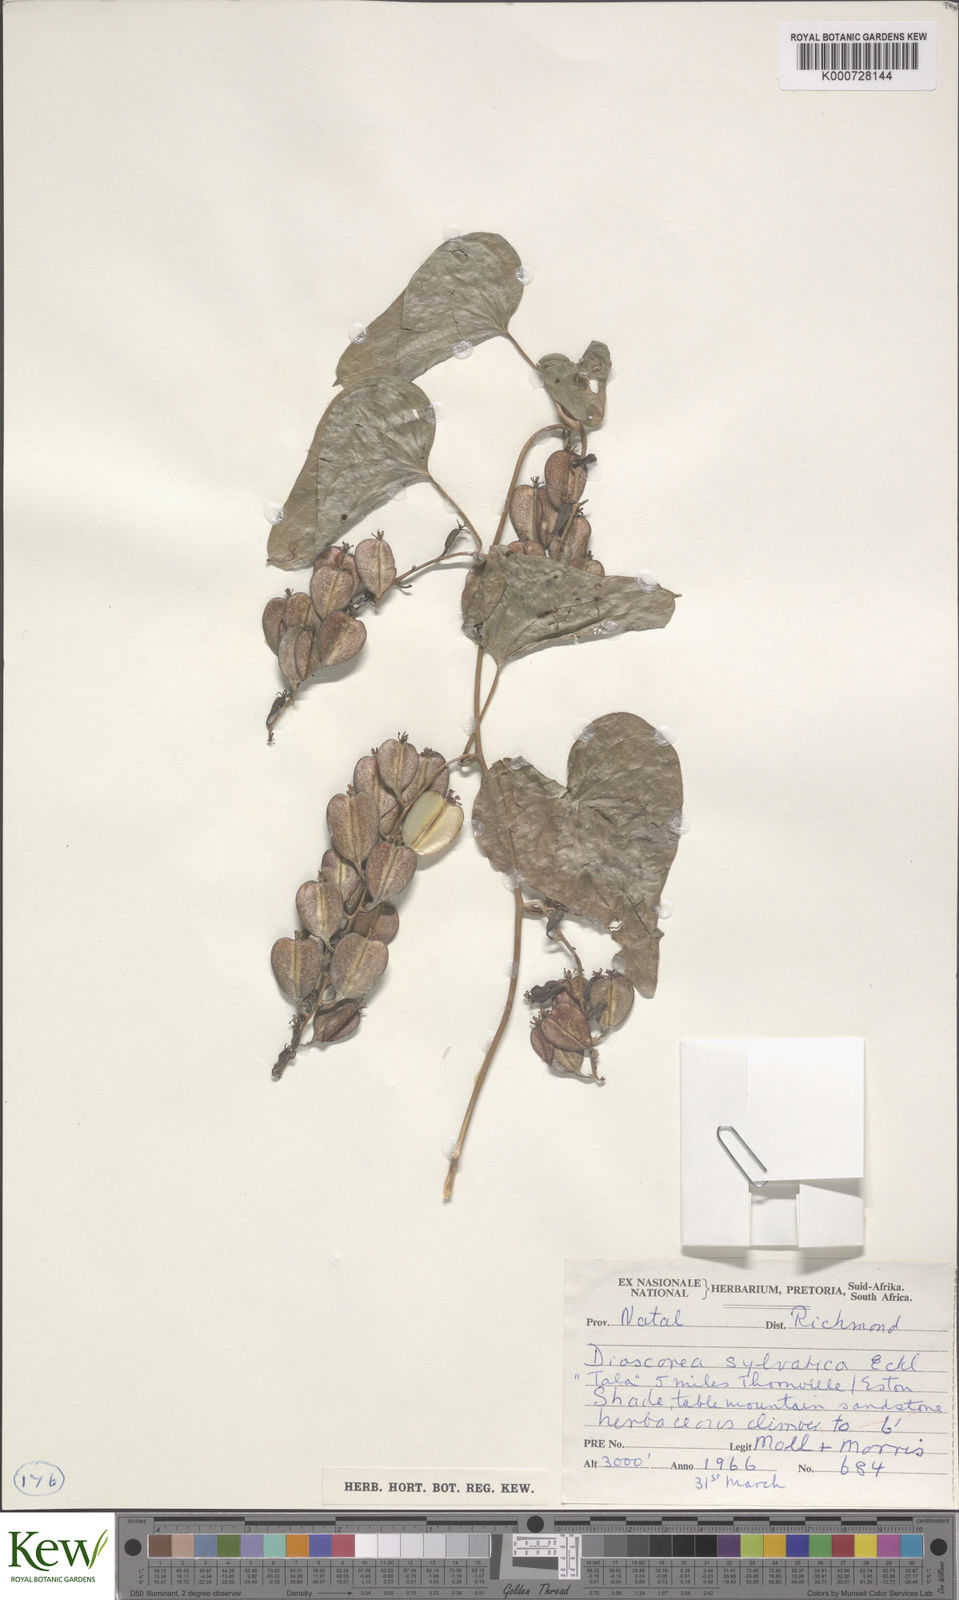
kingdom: Plantae
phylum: Tracheophyta
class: Liliopsida
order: Dioscoreales
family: Dioscoreaceae
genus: Dioscorea
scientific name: Dioscorea sylvatica
